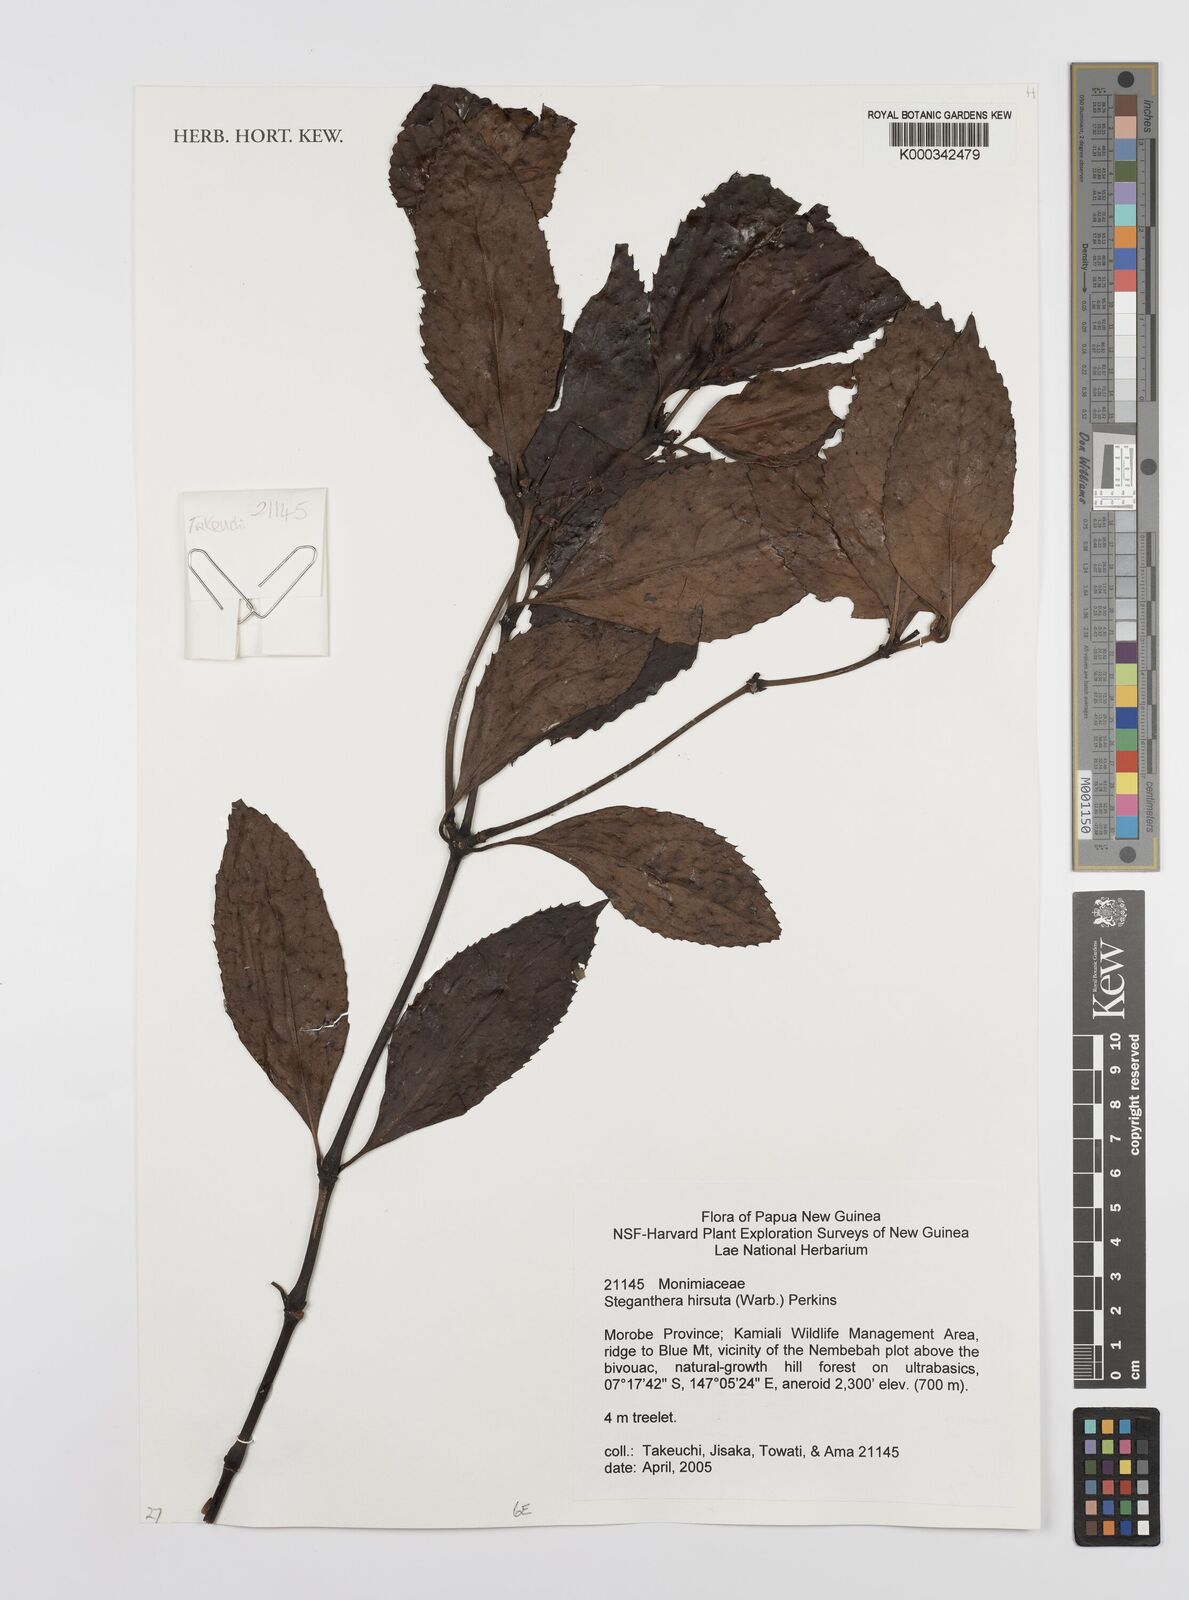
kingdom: Plantae
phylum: Tracheophyta
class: Magnoliopsida
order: Lamiales
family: Oleaceae
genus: Chionanthus
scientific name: Chionanthus
